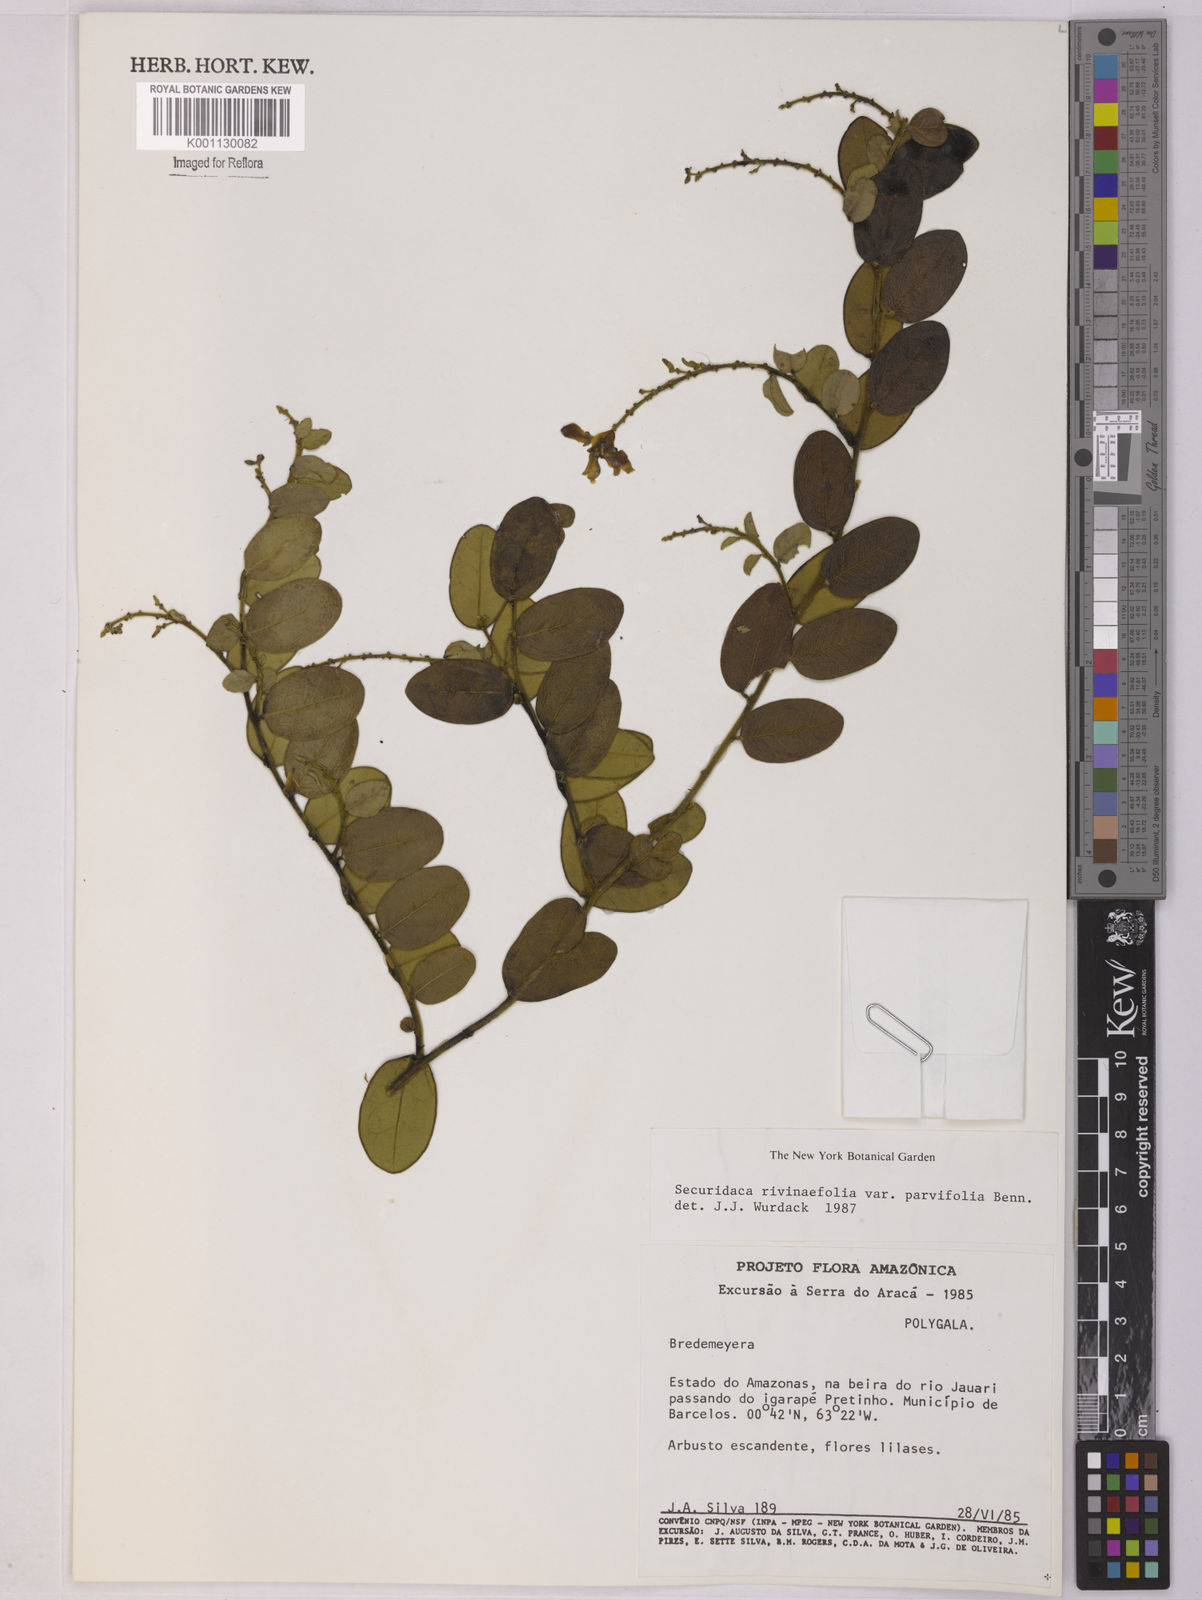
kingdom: Plantae
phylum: Tracheophyta
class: Magnoliopsida
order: Fabales
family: Polygalaceae
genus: Securidaca
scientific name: Securidaca rivinifolia
